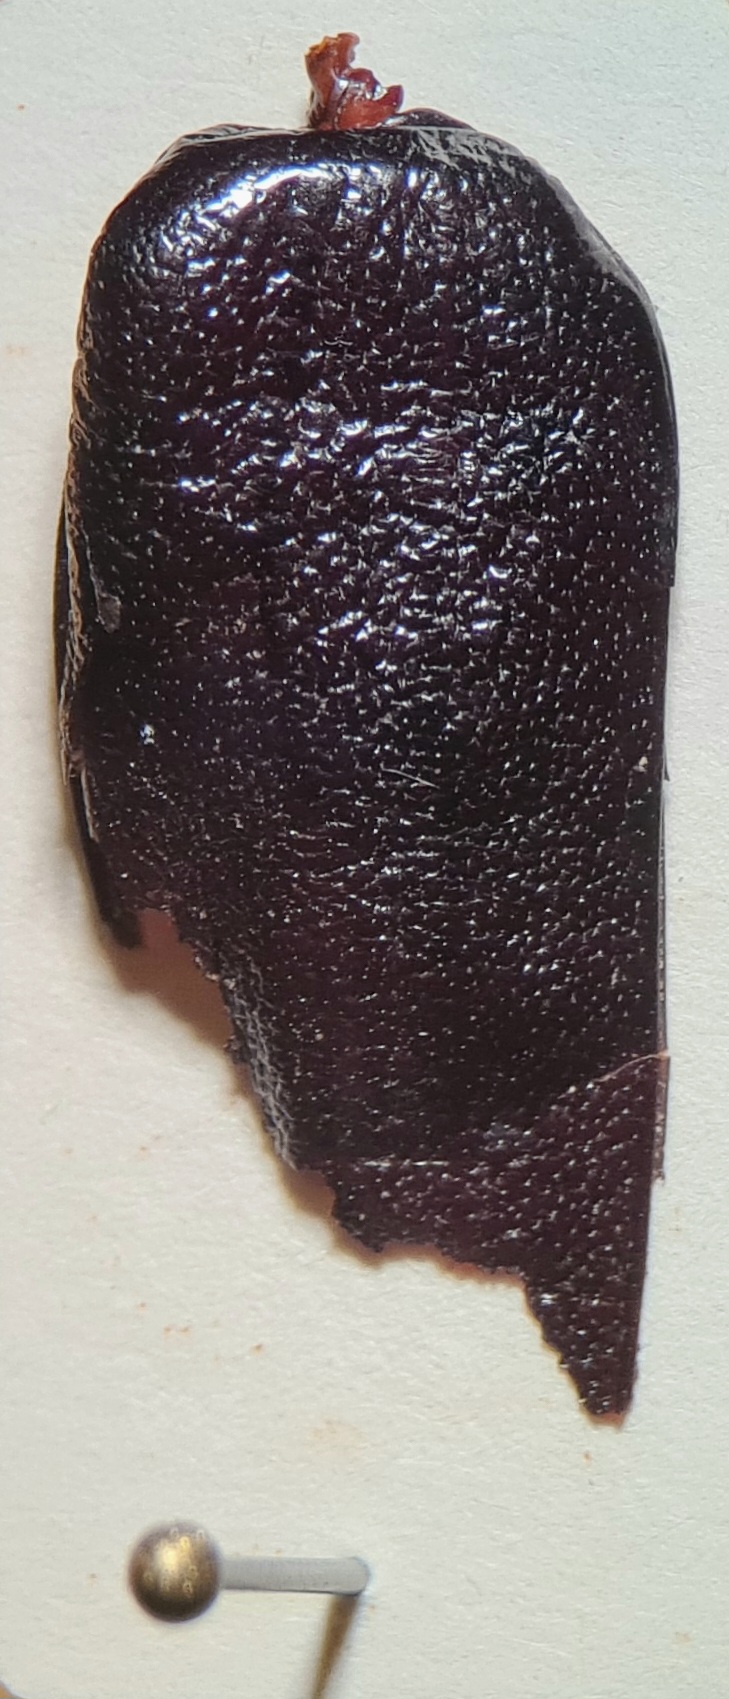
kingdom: Animalia
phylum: Arthropoda
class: Insecta
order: Coleoptera
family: Scarabaeidae
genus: Osmoderma
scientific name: Osmoderma eremita
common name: Eremit
